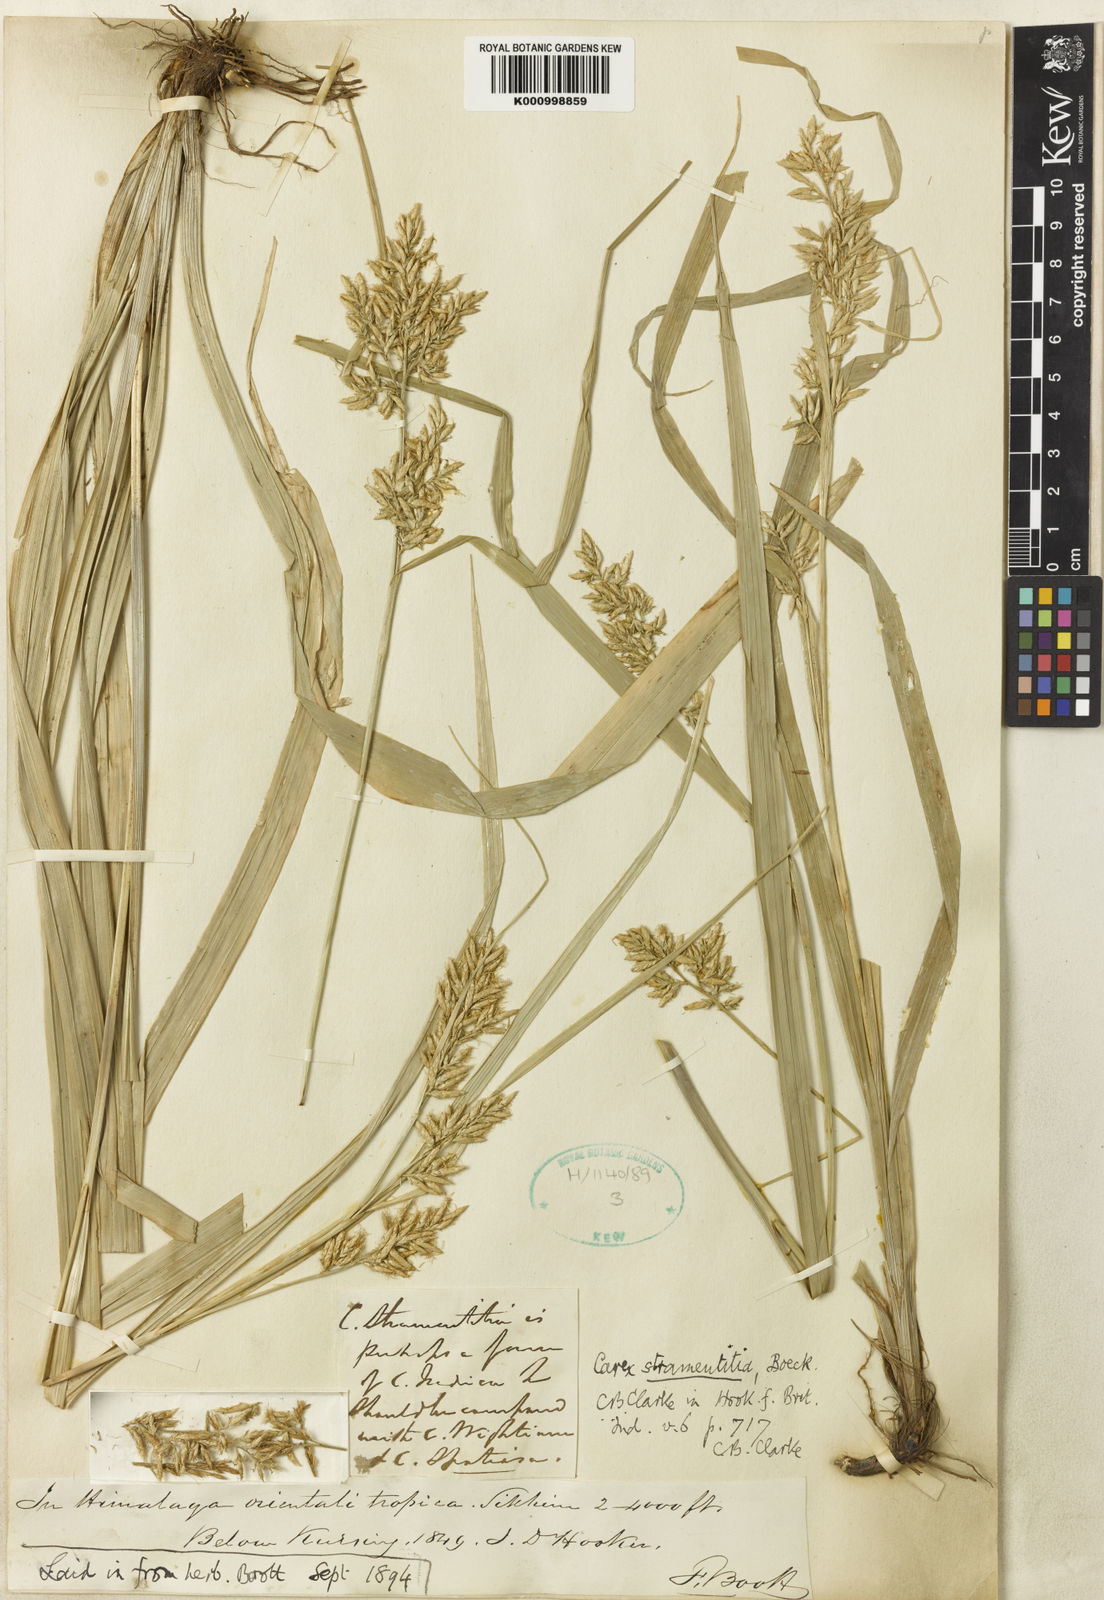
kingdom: Plantae
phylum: Tracheophyta
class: Liliopsida
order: Poales
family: Cyperaceae
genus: Carex
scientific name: Carex stramentitia
